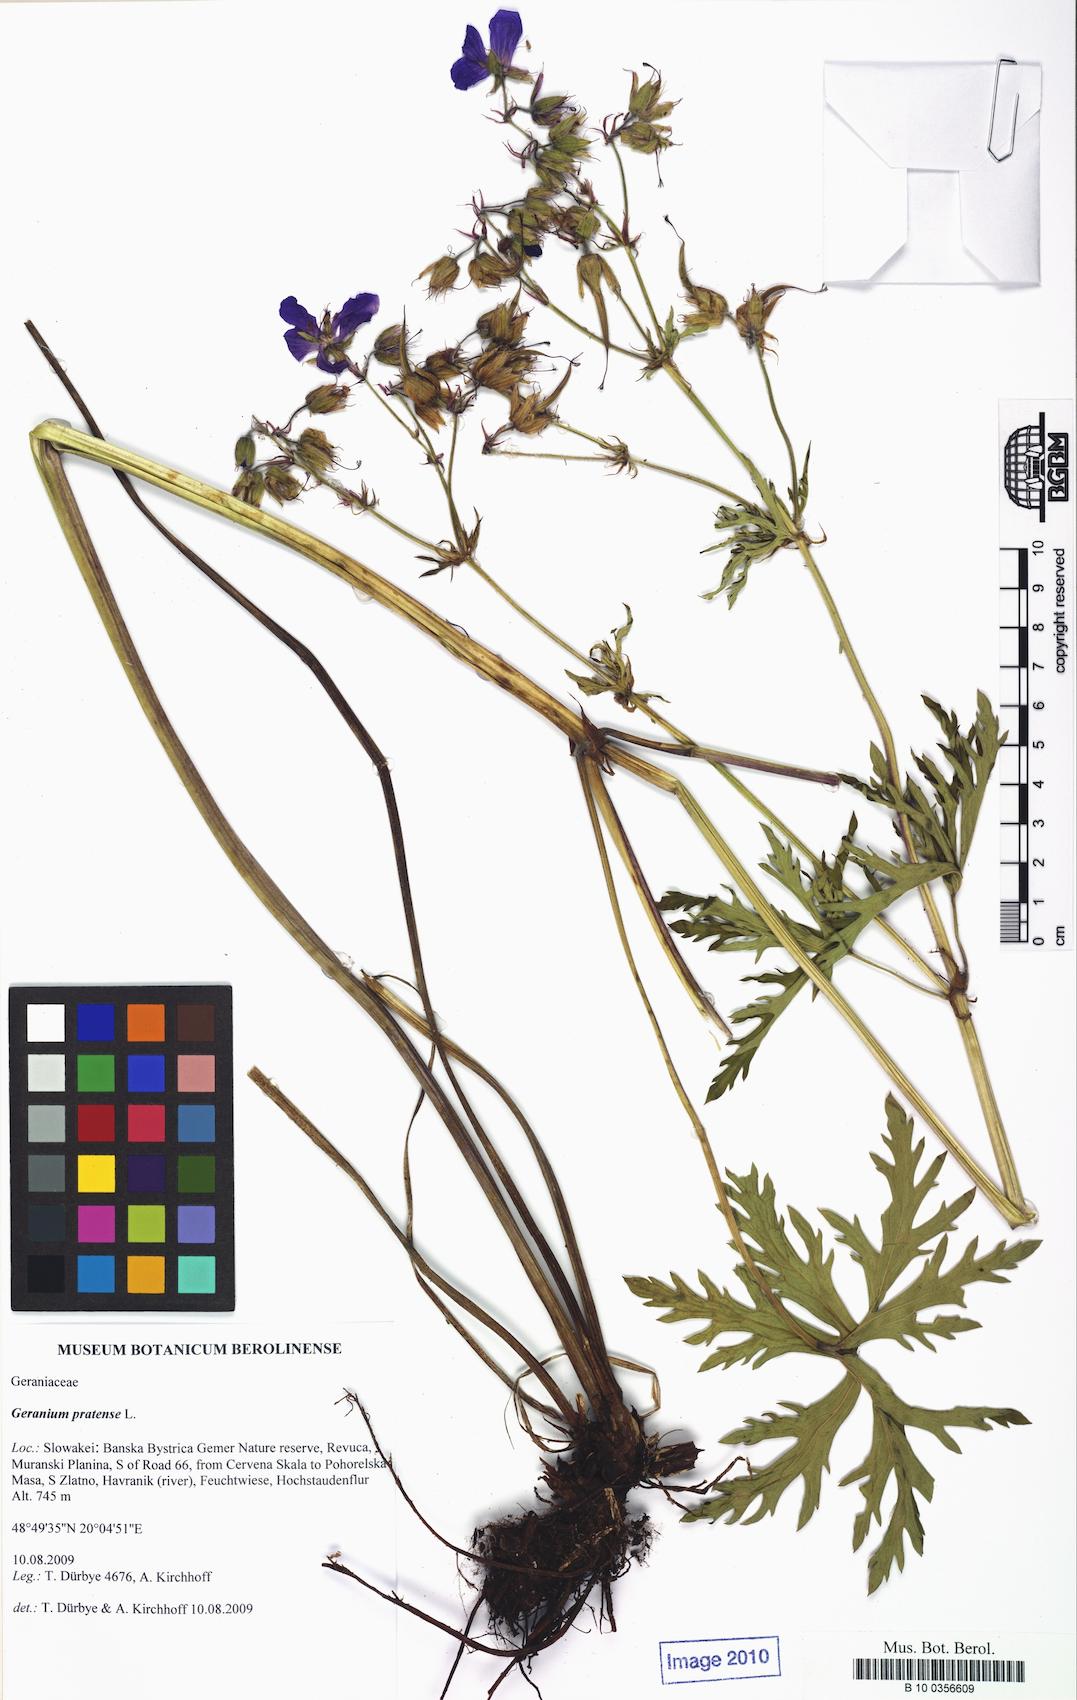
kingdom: Plantae
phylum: Tracheophyta
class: Magnoliopsida
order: Geraniales
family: Geraniaceae
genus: Geranium
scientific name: Geranium pratense
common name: Meadow crane's-bill
